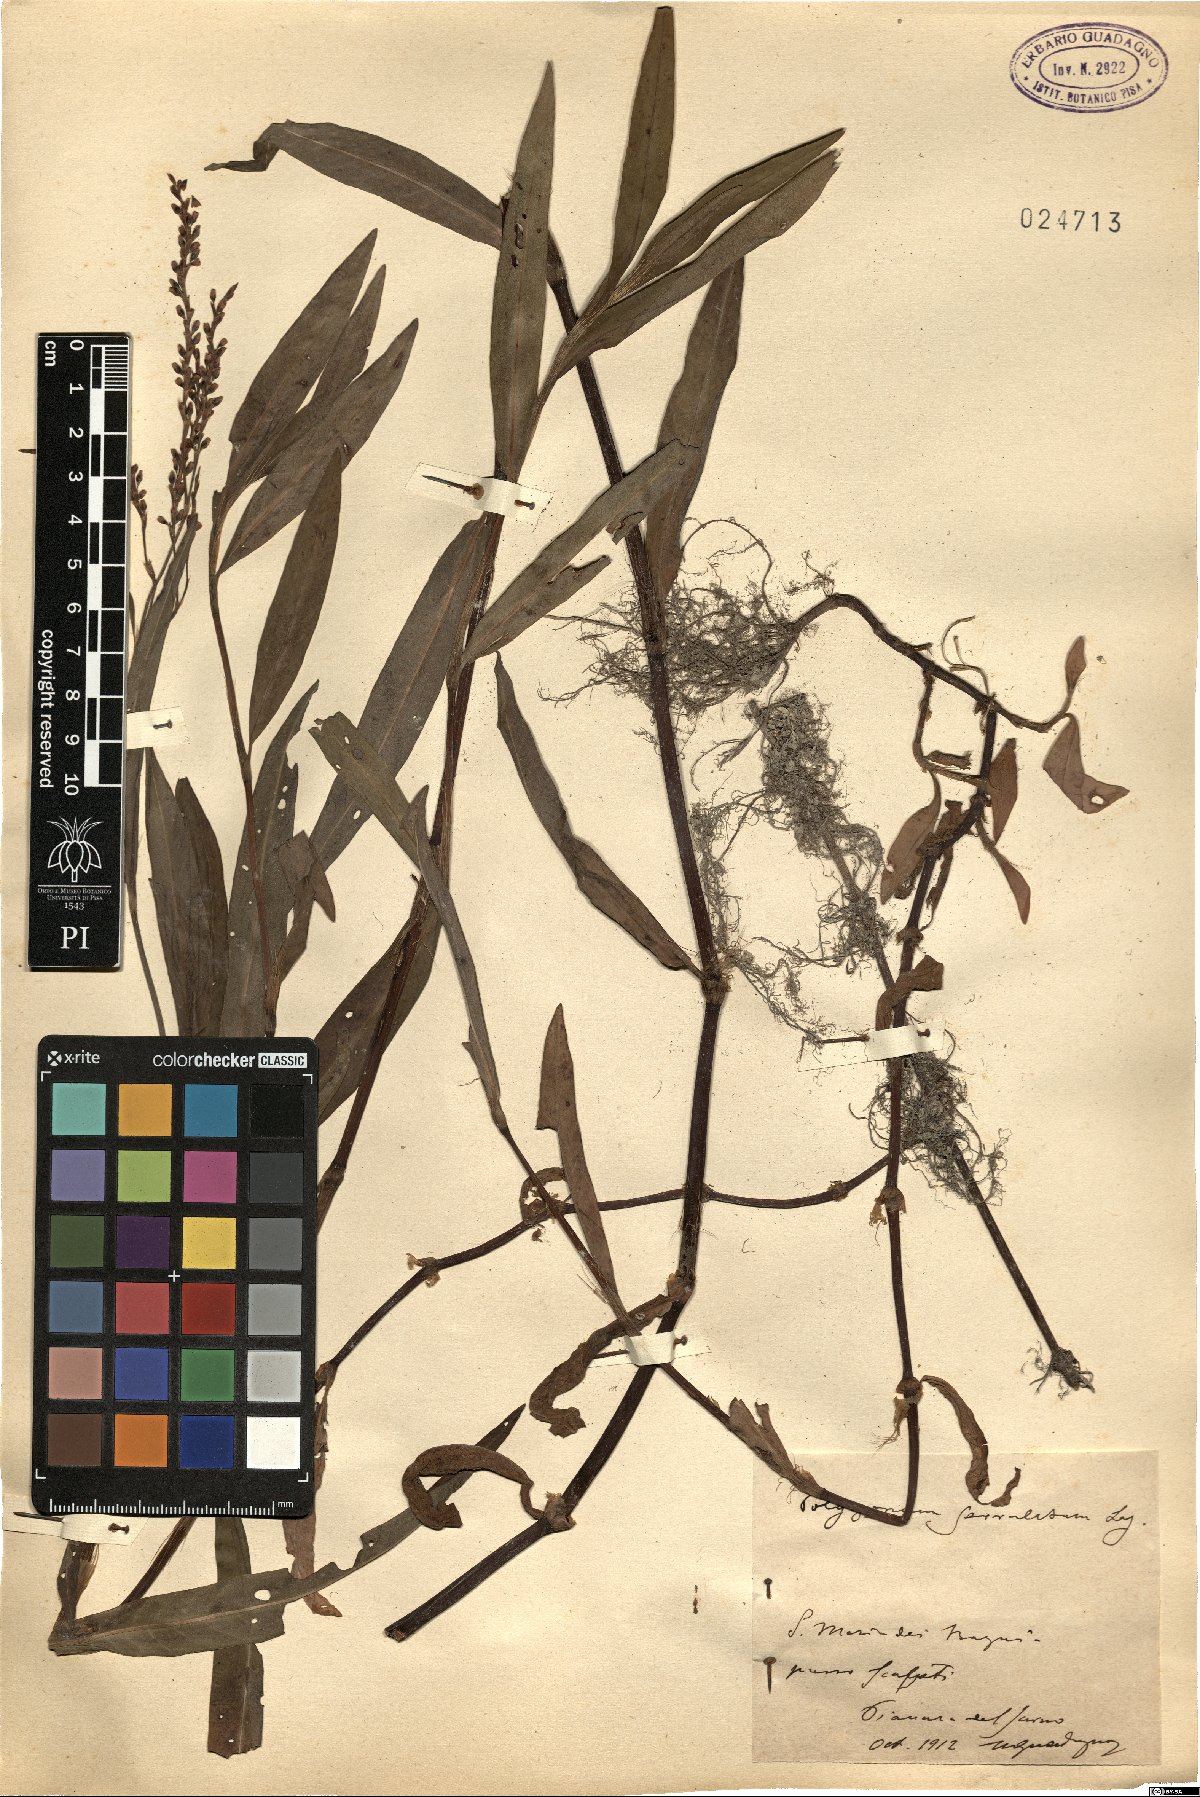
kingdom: Plantae
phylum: Tracheophyta
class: Magnoliopsida
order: Caryophyllales
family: Polygonaceae
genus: Persicaria
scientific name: Persicaria salicifolia
